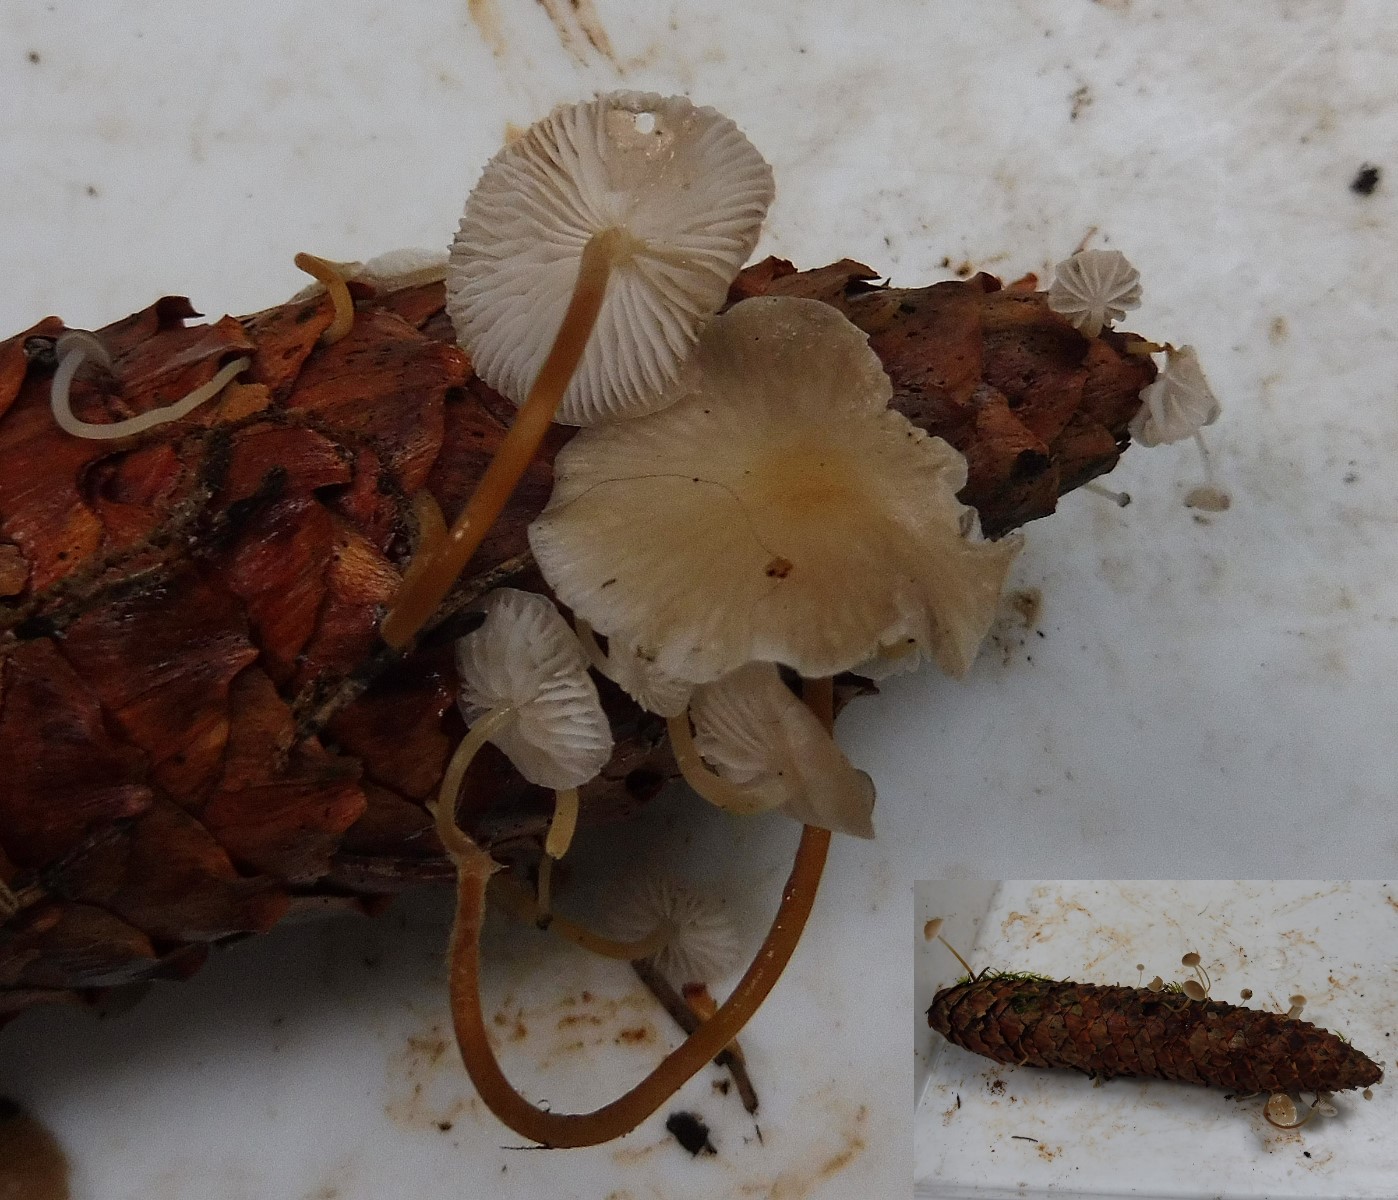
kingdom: Fungi
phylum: Basidiomycota
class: Agaricomycetes
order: Agaricales
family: Physalacriaceae
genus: Strobilurus
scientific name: Strobilurus esculentus
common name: gran-koglehat
